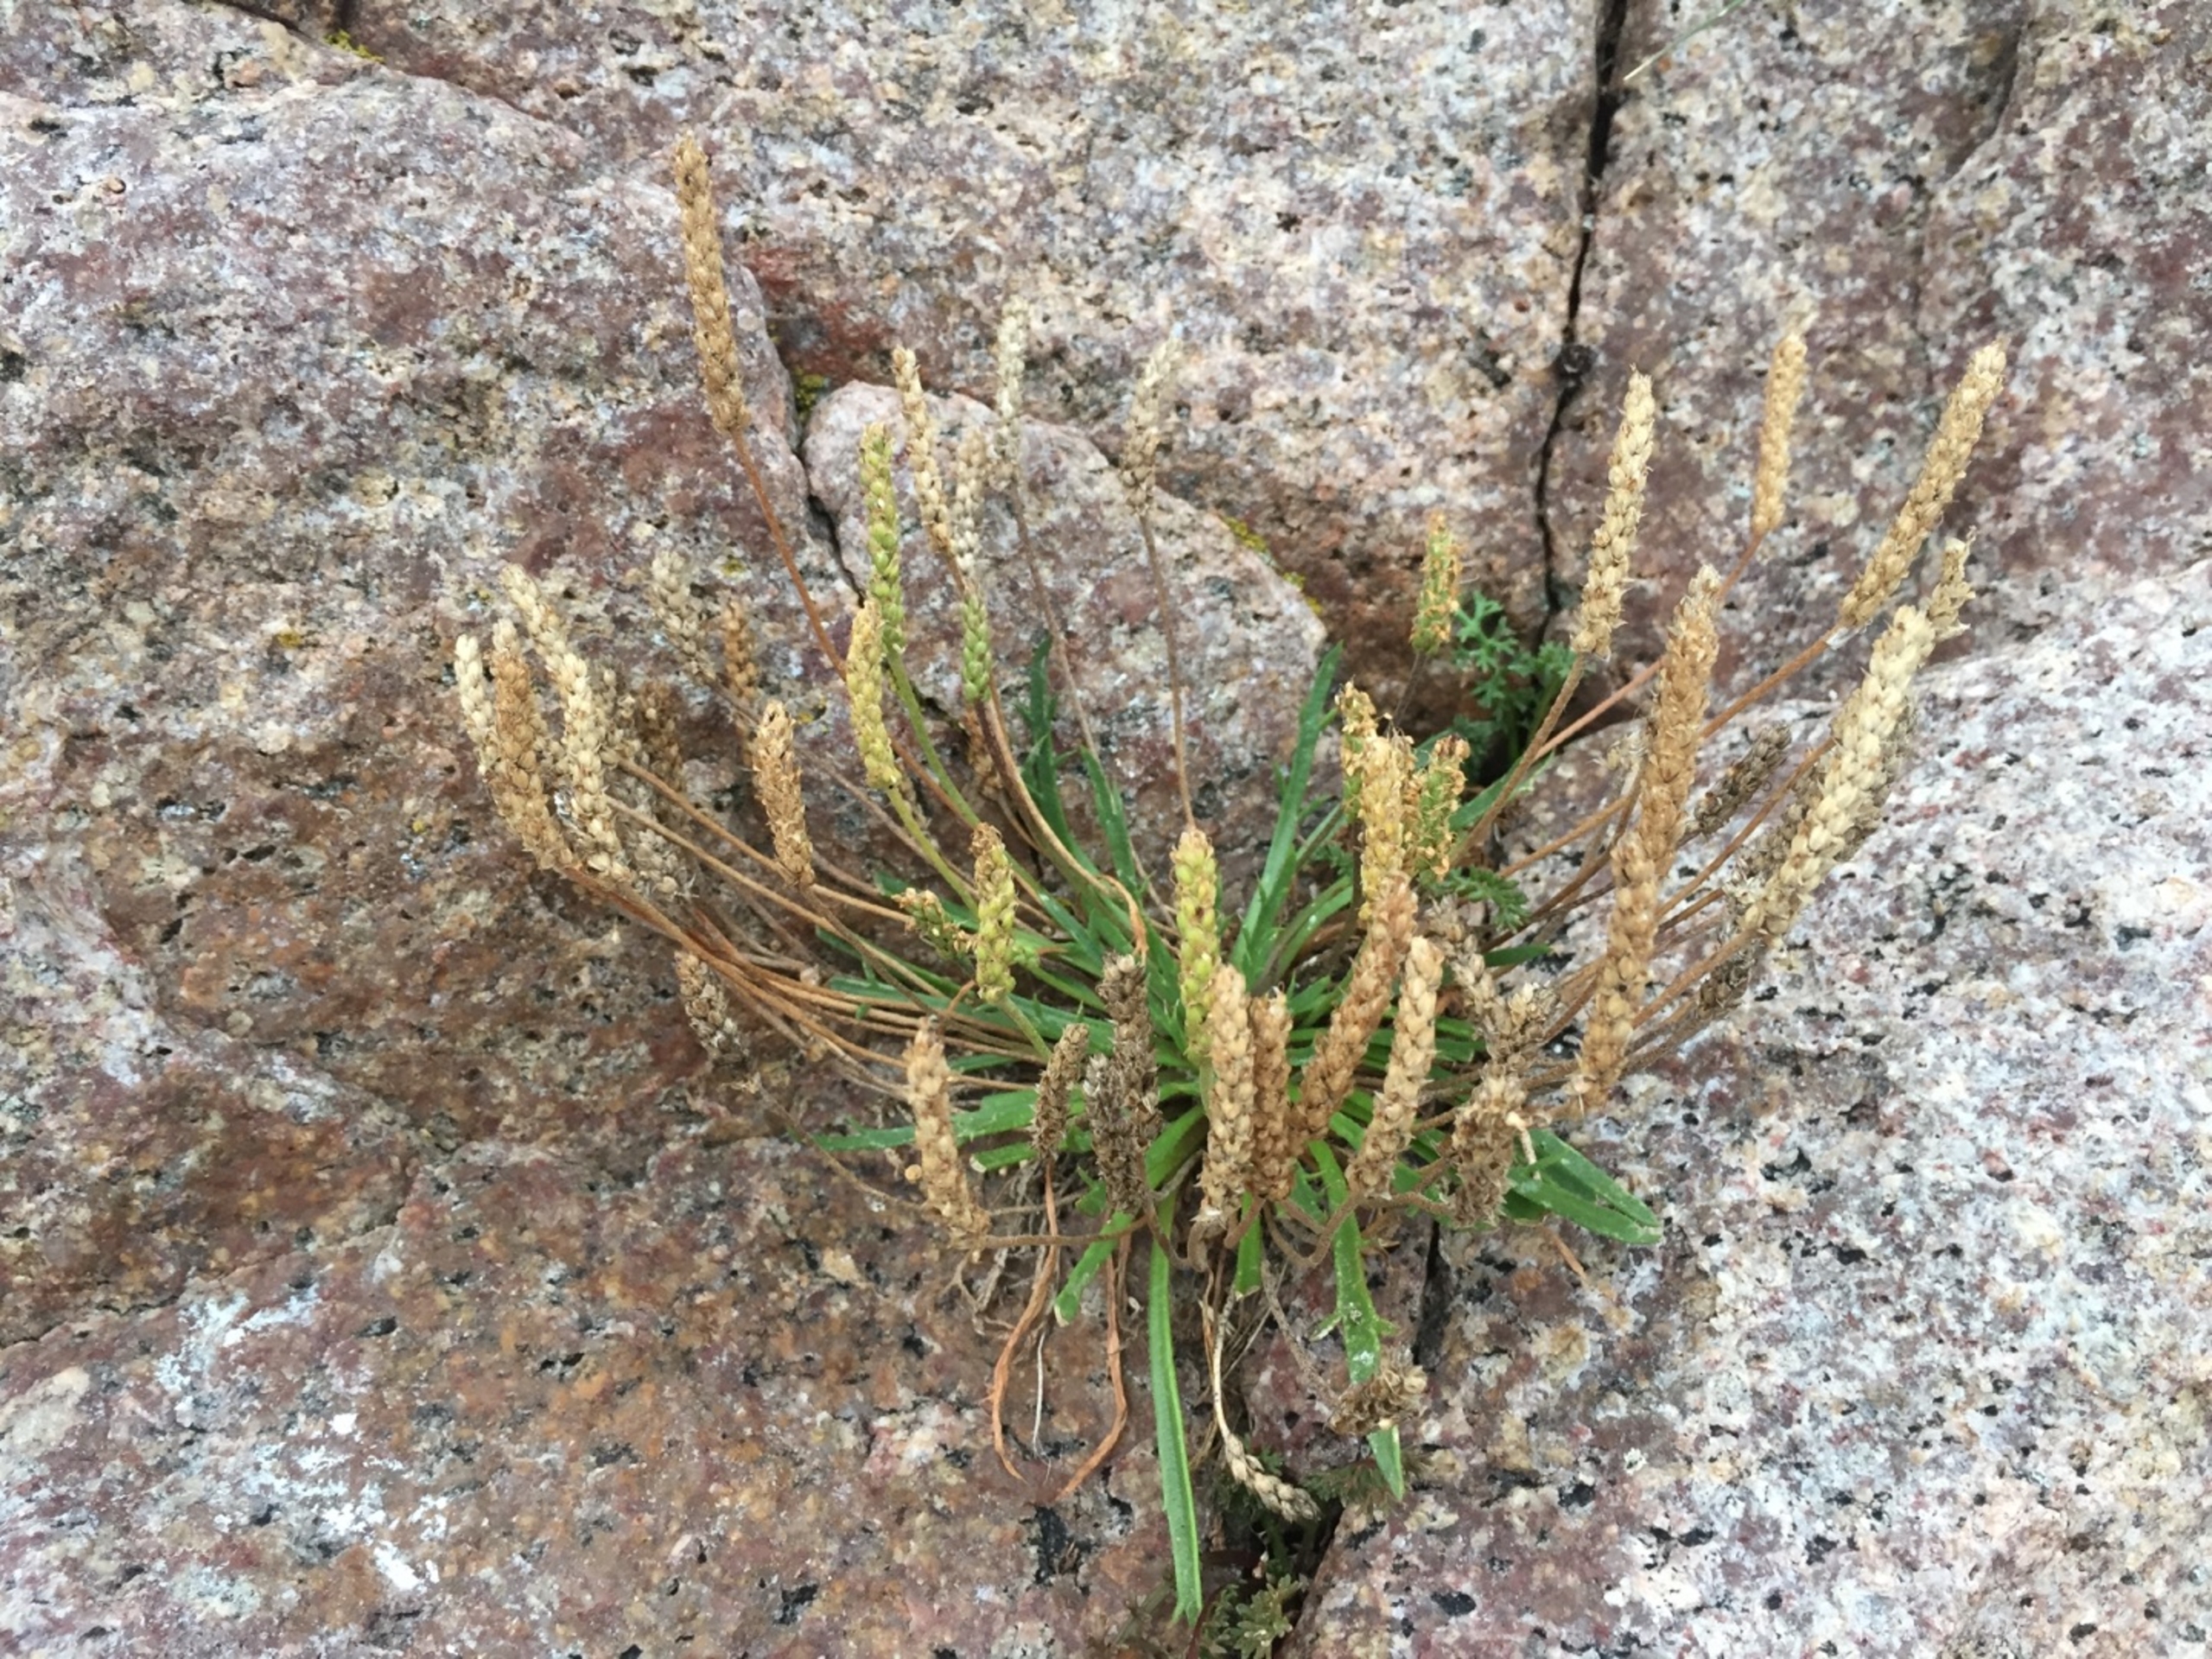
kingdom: Plantae
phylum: Tracheophyta
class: Magnoliopsida
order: Lamiales
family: Plantaginaceae
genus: Plantago
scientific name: Plantago coronopus
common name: Fliget vejbred
